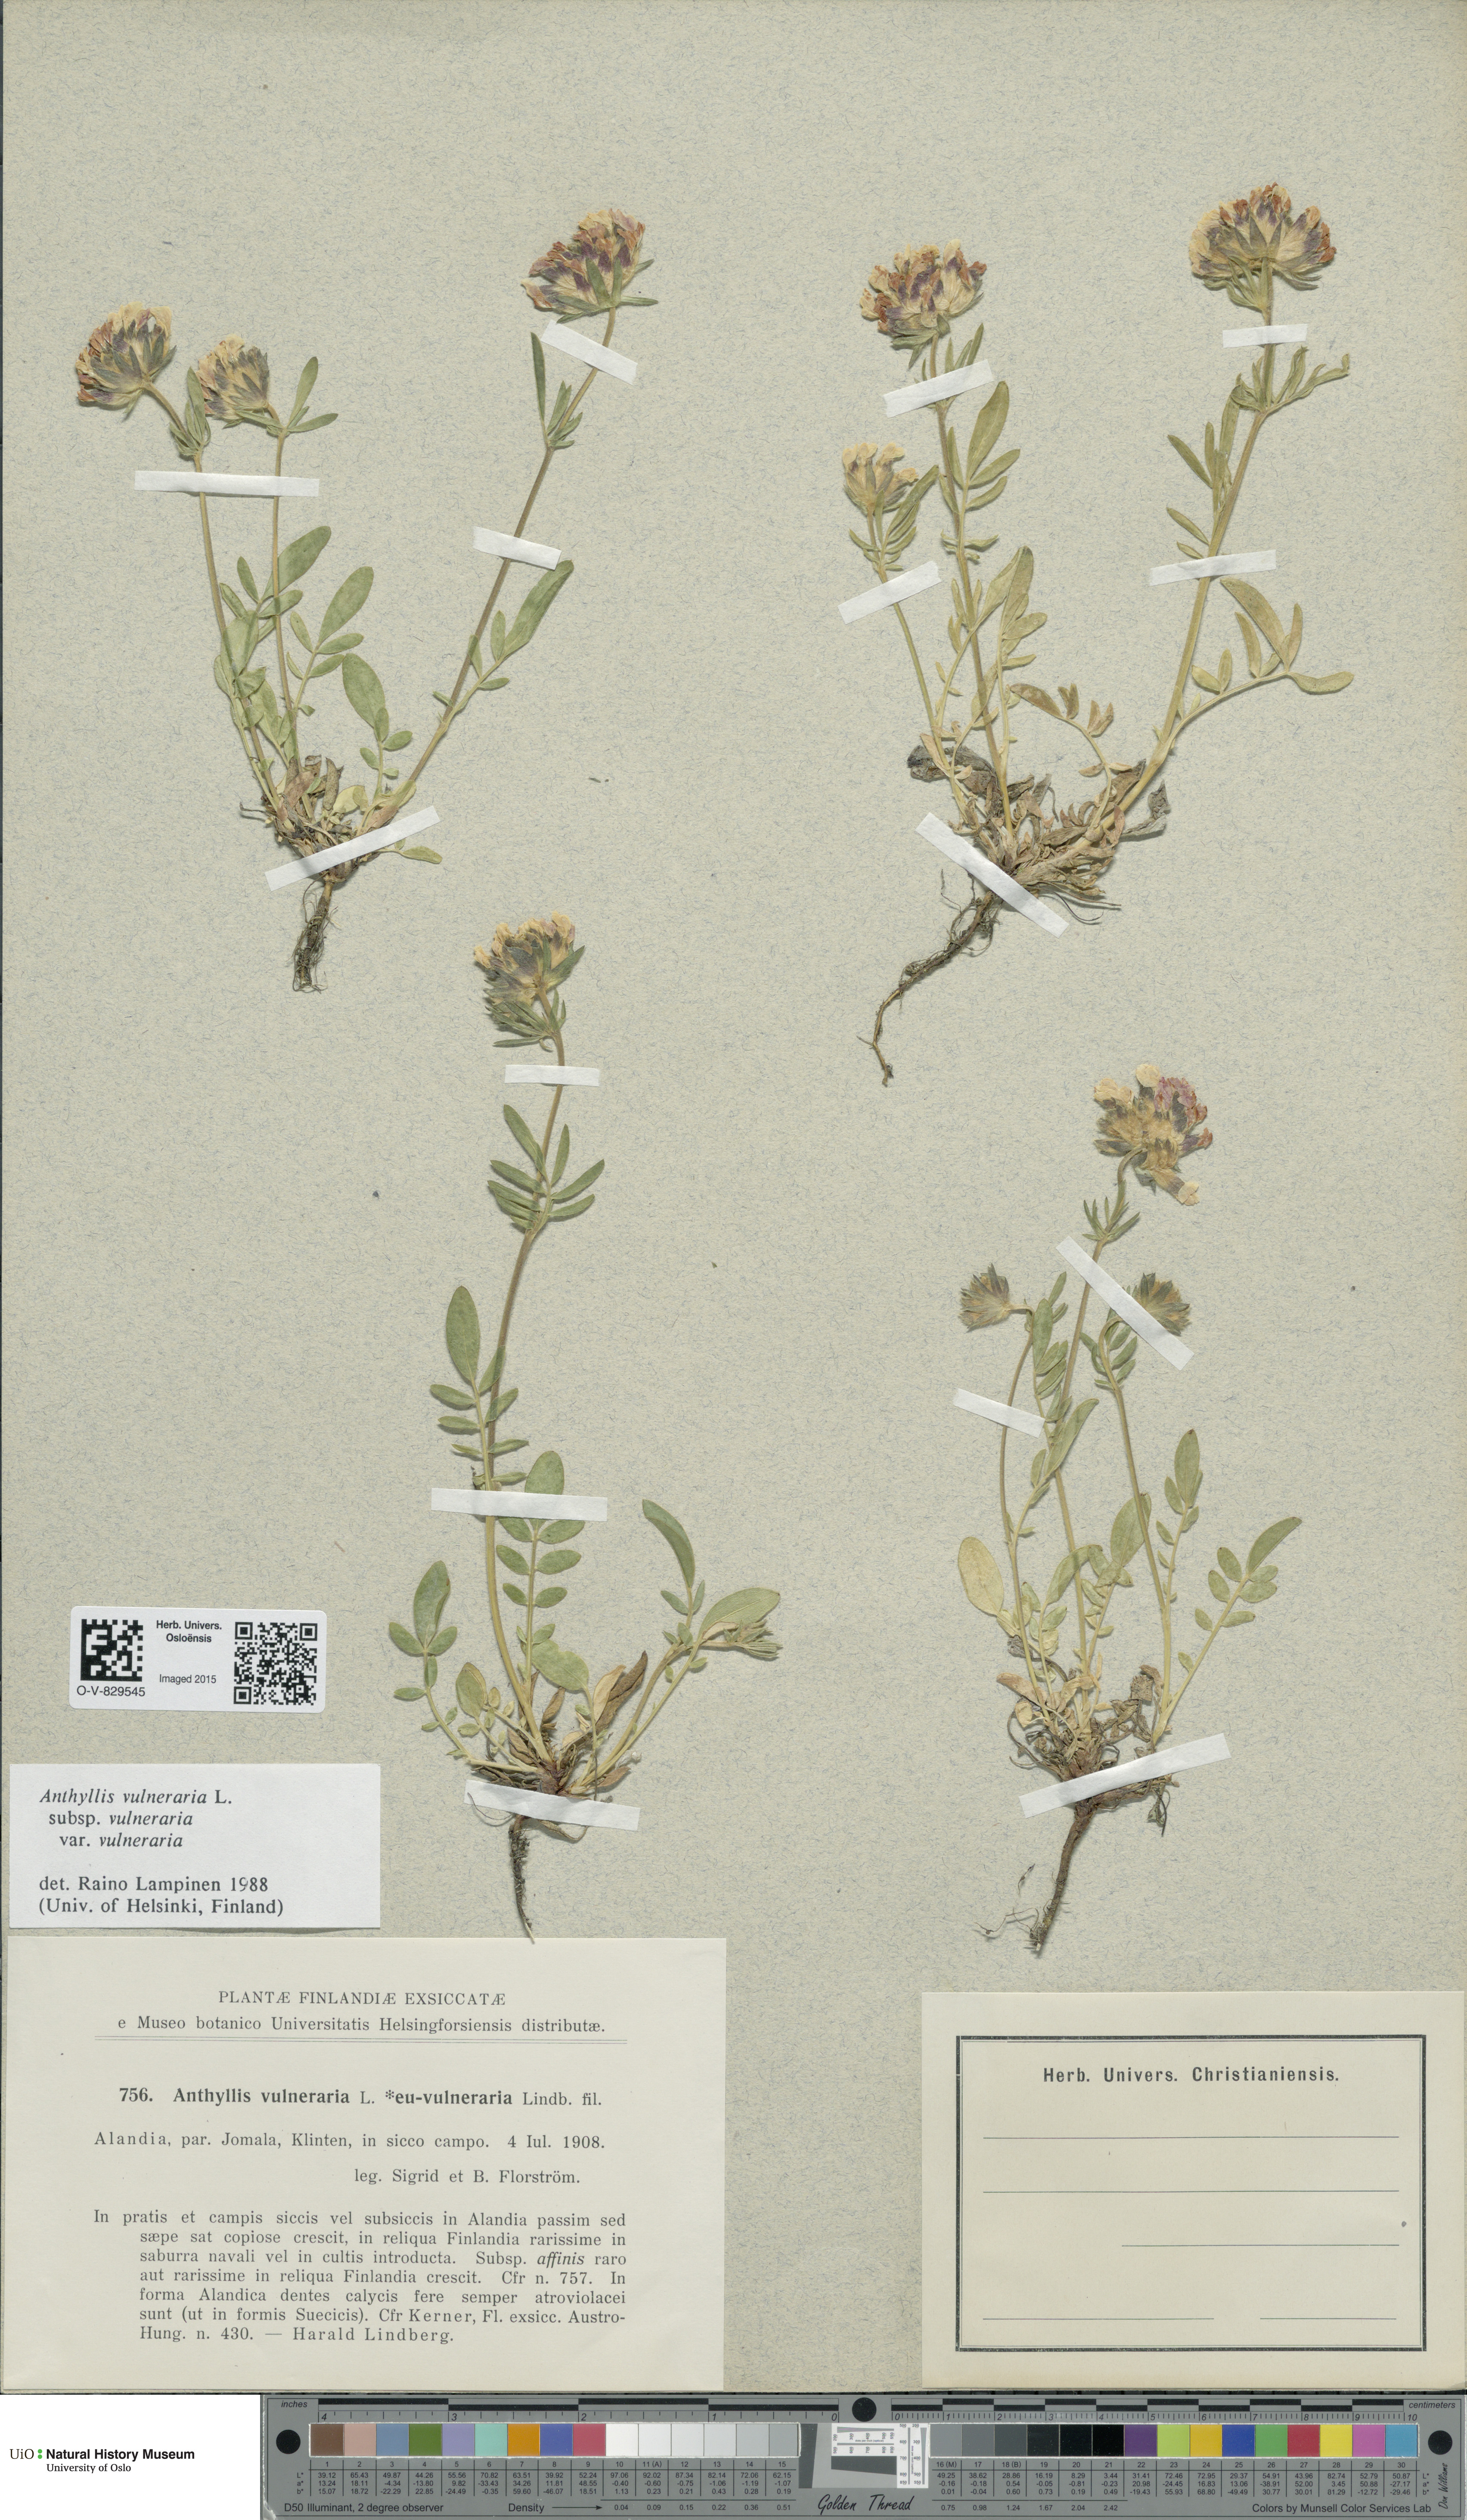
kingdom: Plantae
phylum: Tracheophyta
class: Magnoliopsida
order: Fabales
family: Fabaceae
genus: Anthyllis
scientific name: Anthyllis vulneraria
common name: Kidney vetch
